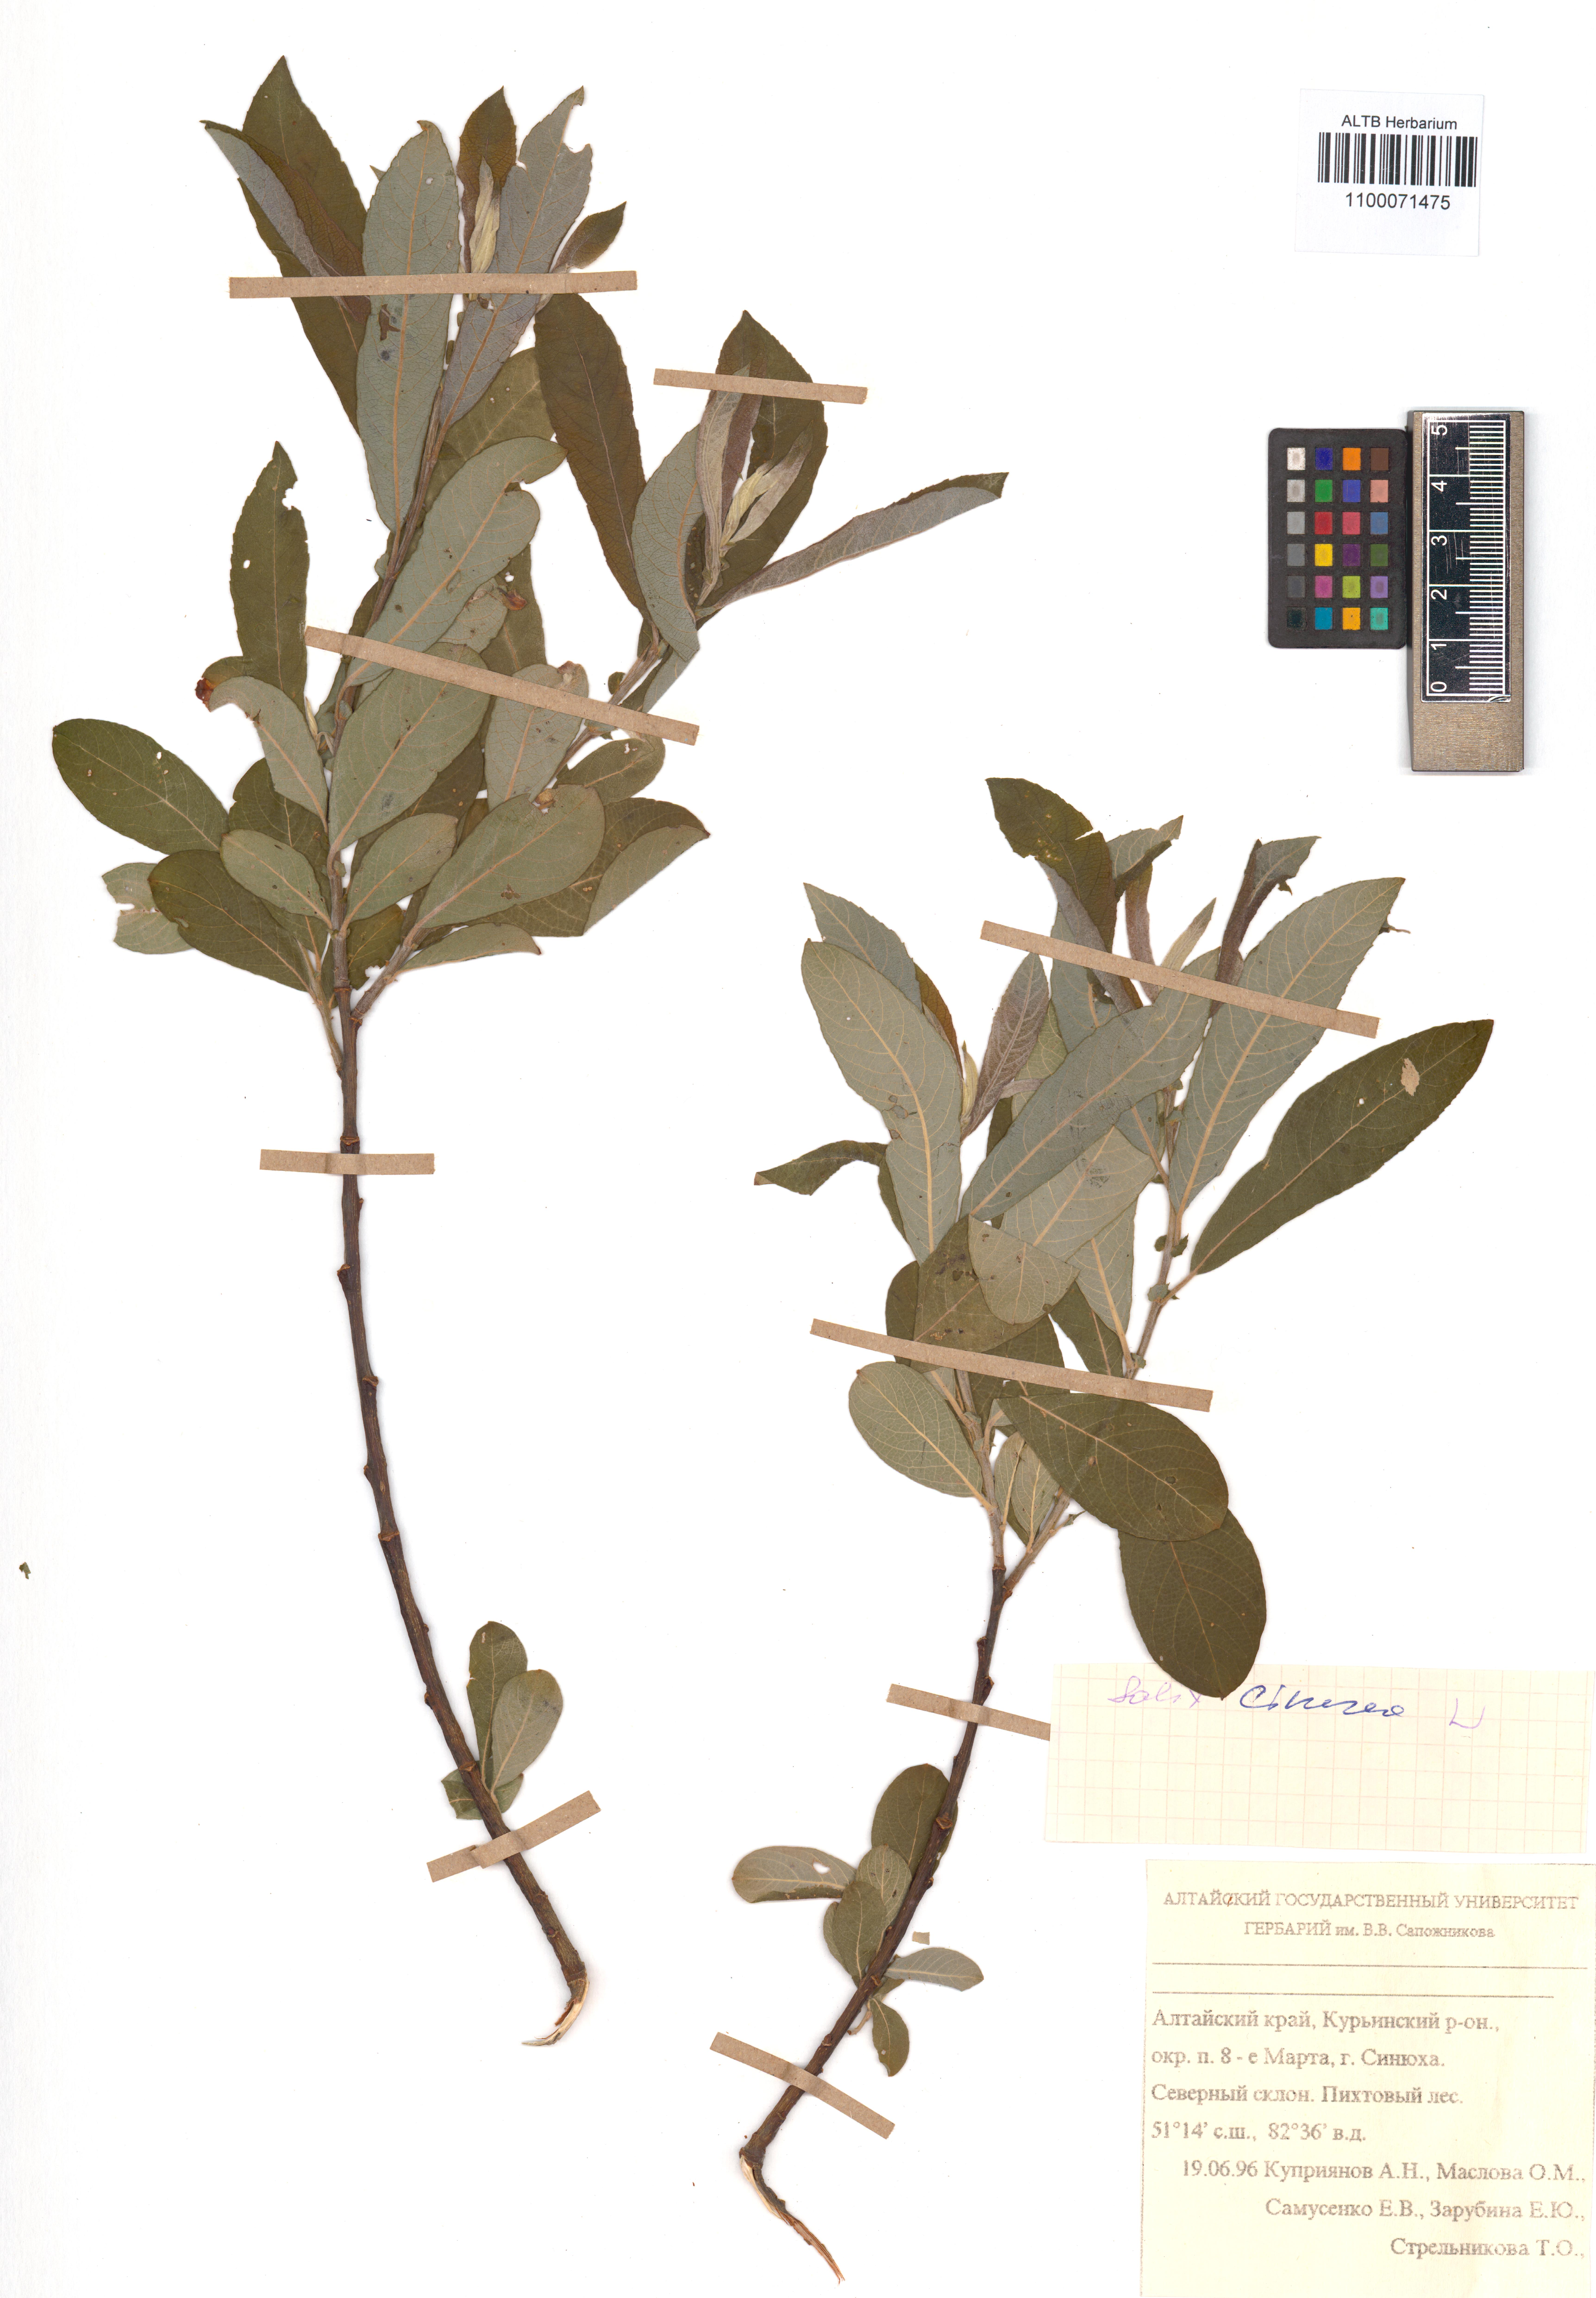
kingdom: Plantae
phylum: Tracheophyta
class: Magnoliopsida
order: Malpighiales
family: Salicaceae
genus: Salix
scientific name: Salix cinerea
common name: Common sallow
